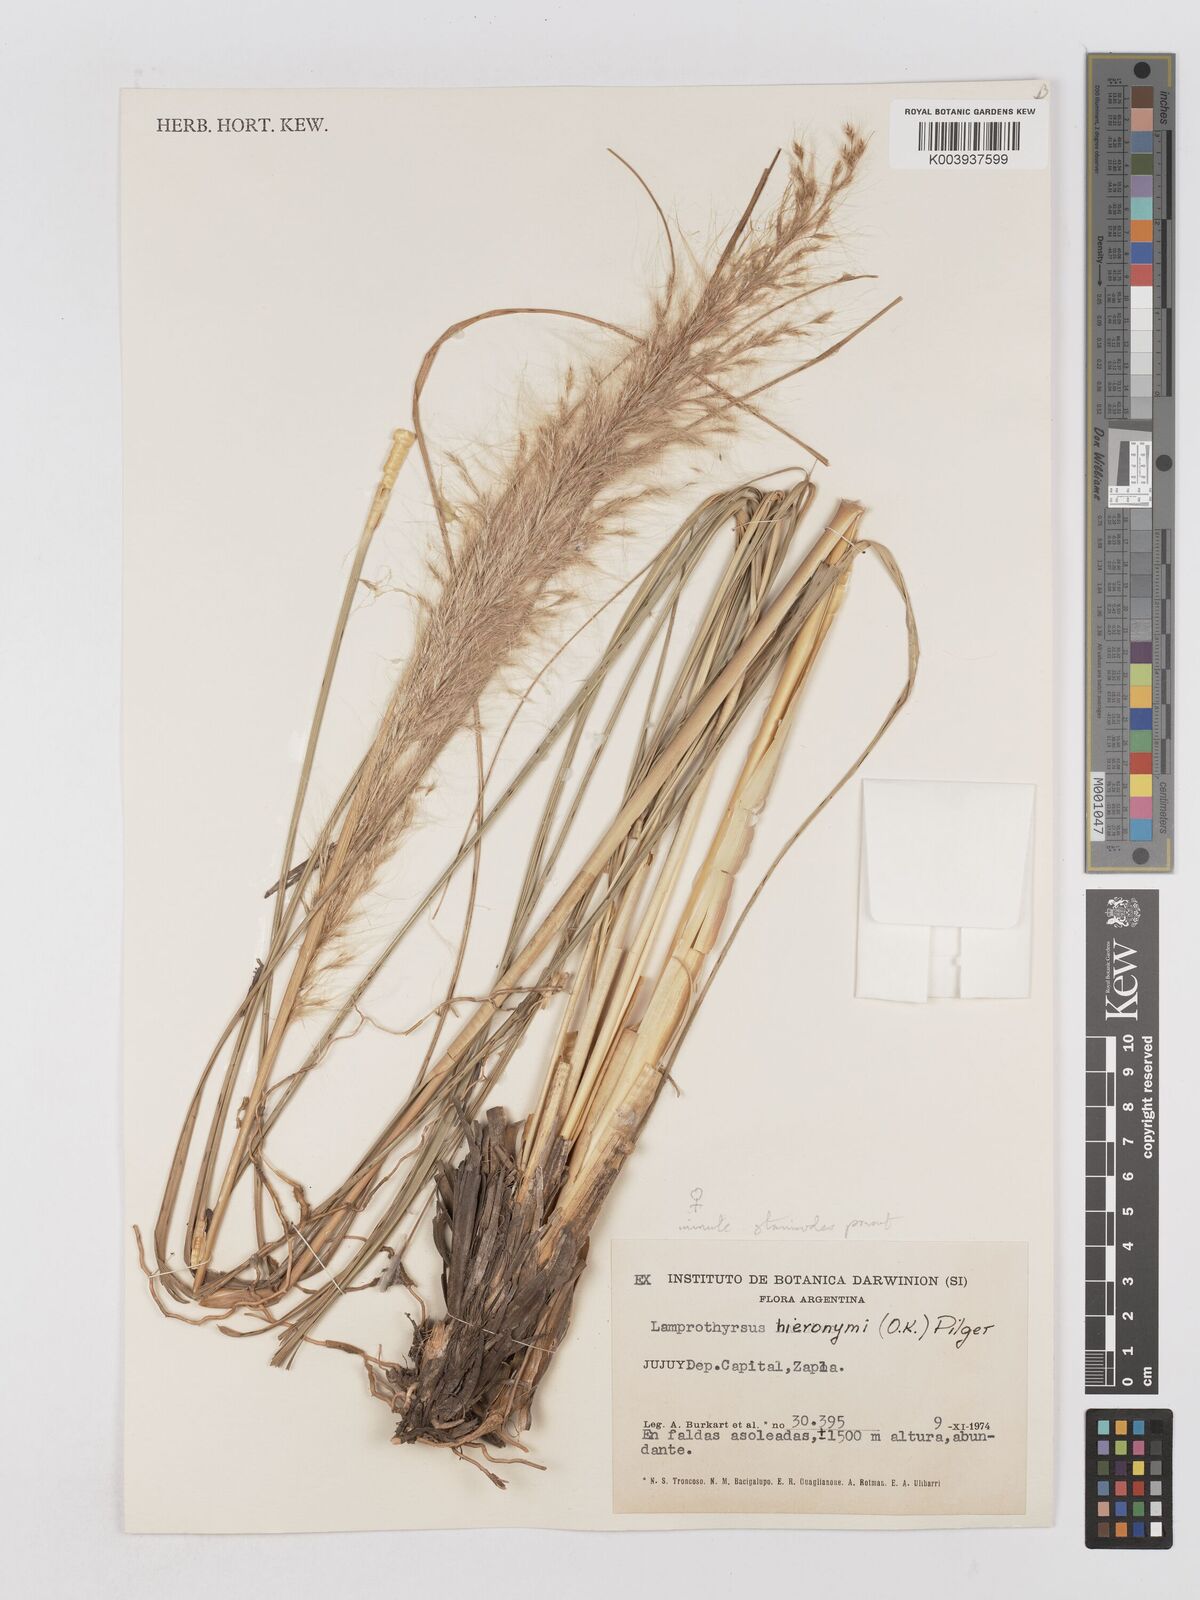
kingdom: Plantae
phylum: Tracheophyta
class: Liliopsida
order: Poales
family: Poaceae
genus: Cortaderia
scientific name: Cortaderia hieronymi
